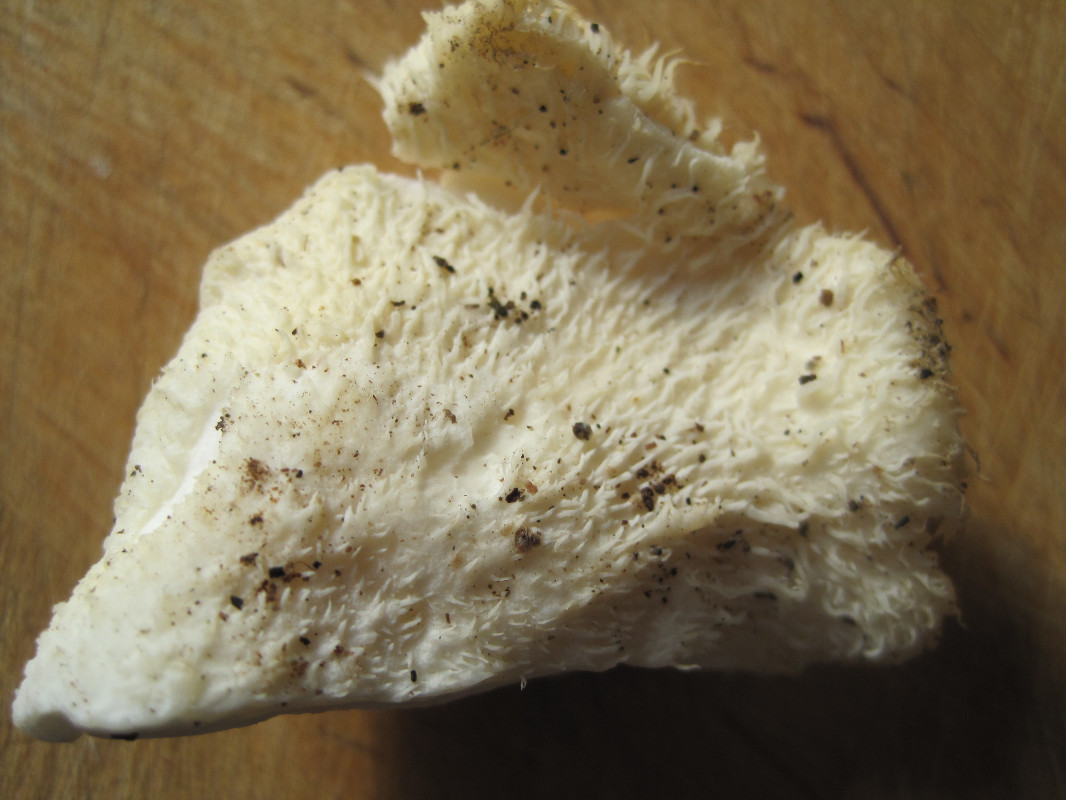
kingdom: Fungi
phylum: Basidiomycota
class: Agaricomycetes
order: Russulales
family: Hericiaceae
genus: Hericium
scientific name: Hericium cirrhatum
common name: børstepigsvamp
